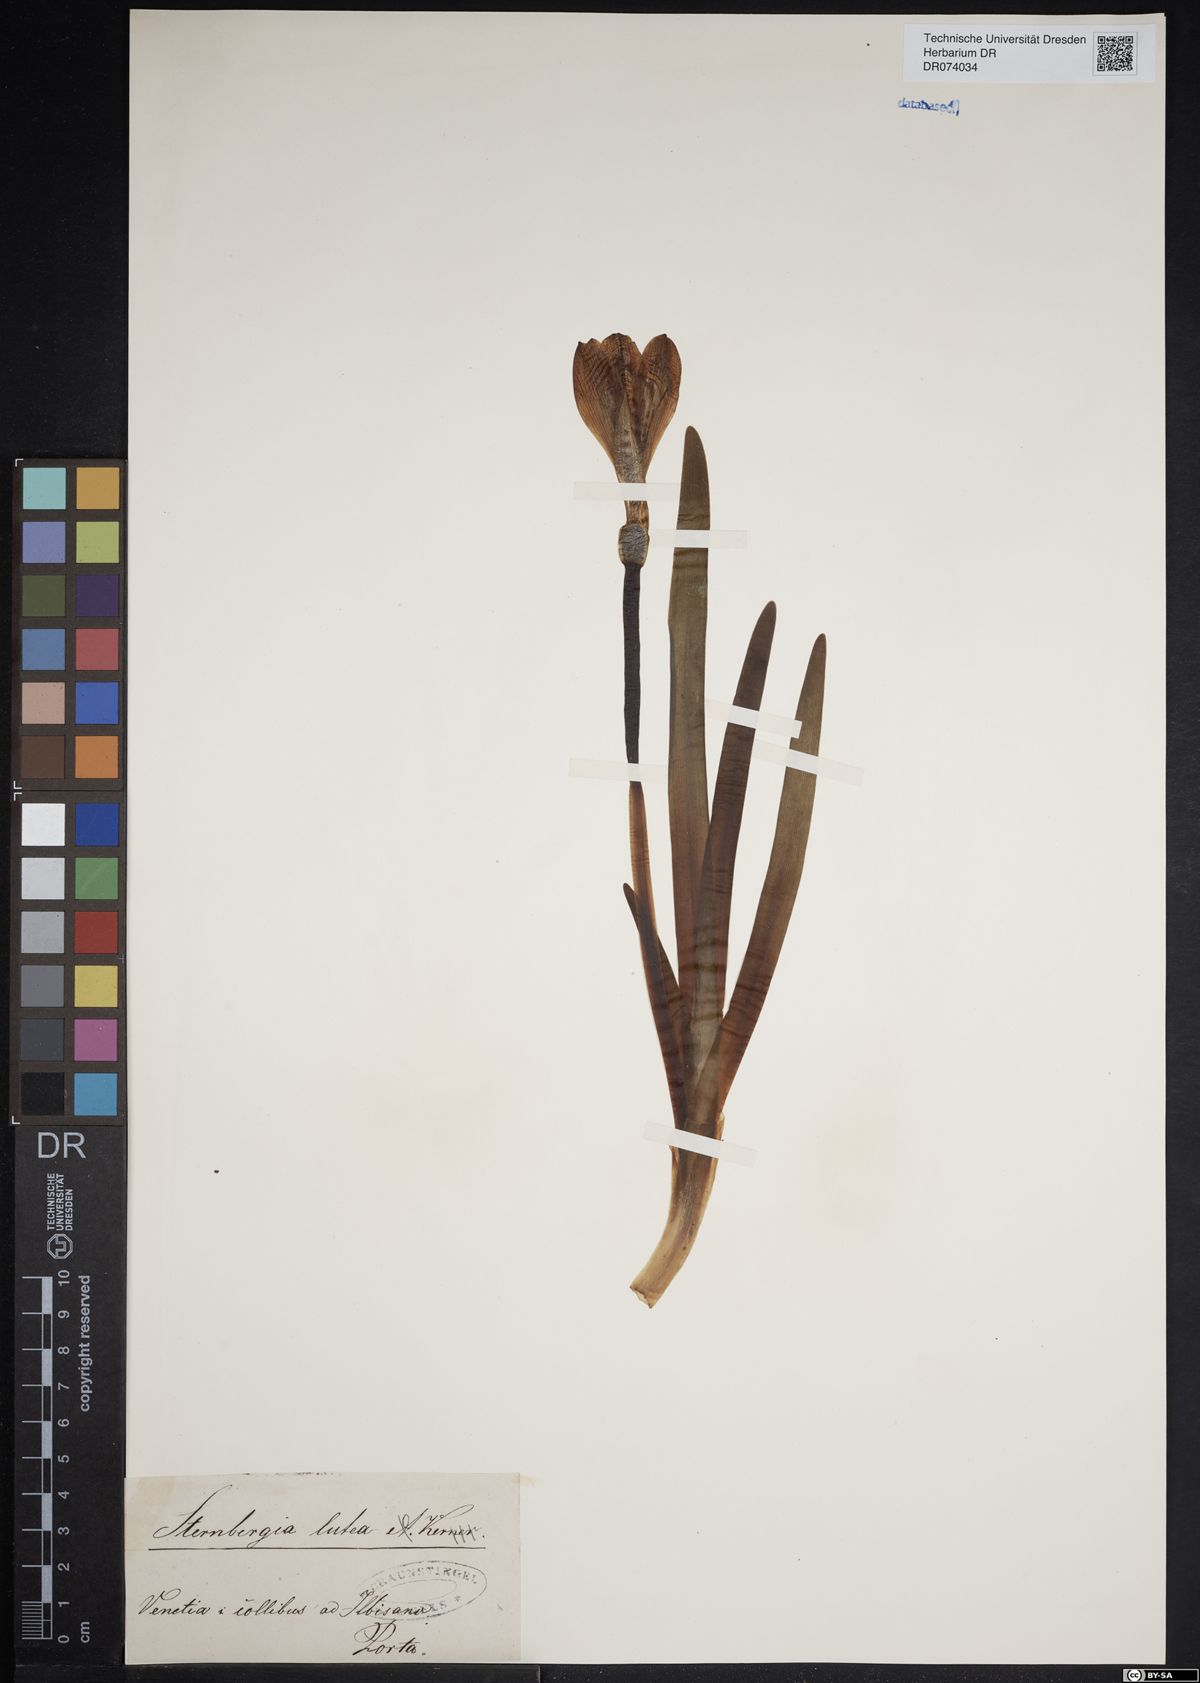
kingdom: Plantae
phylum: Tracheophyta
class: Liliopsida
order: Asparagales
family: Amaryllidaceae
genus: Sternbergia
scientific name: Sternbergia lutea
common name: Winter daffodil
